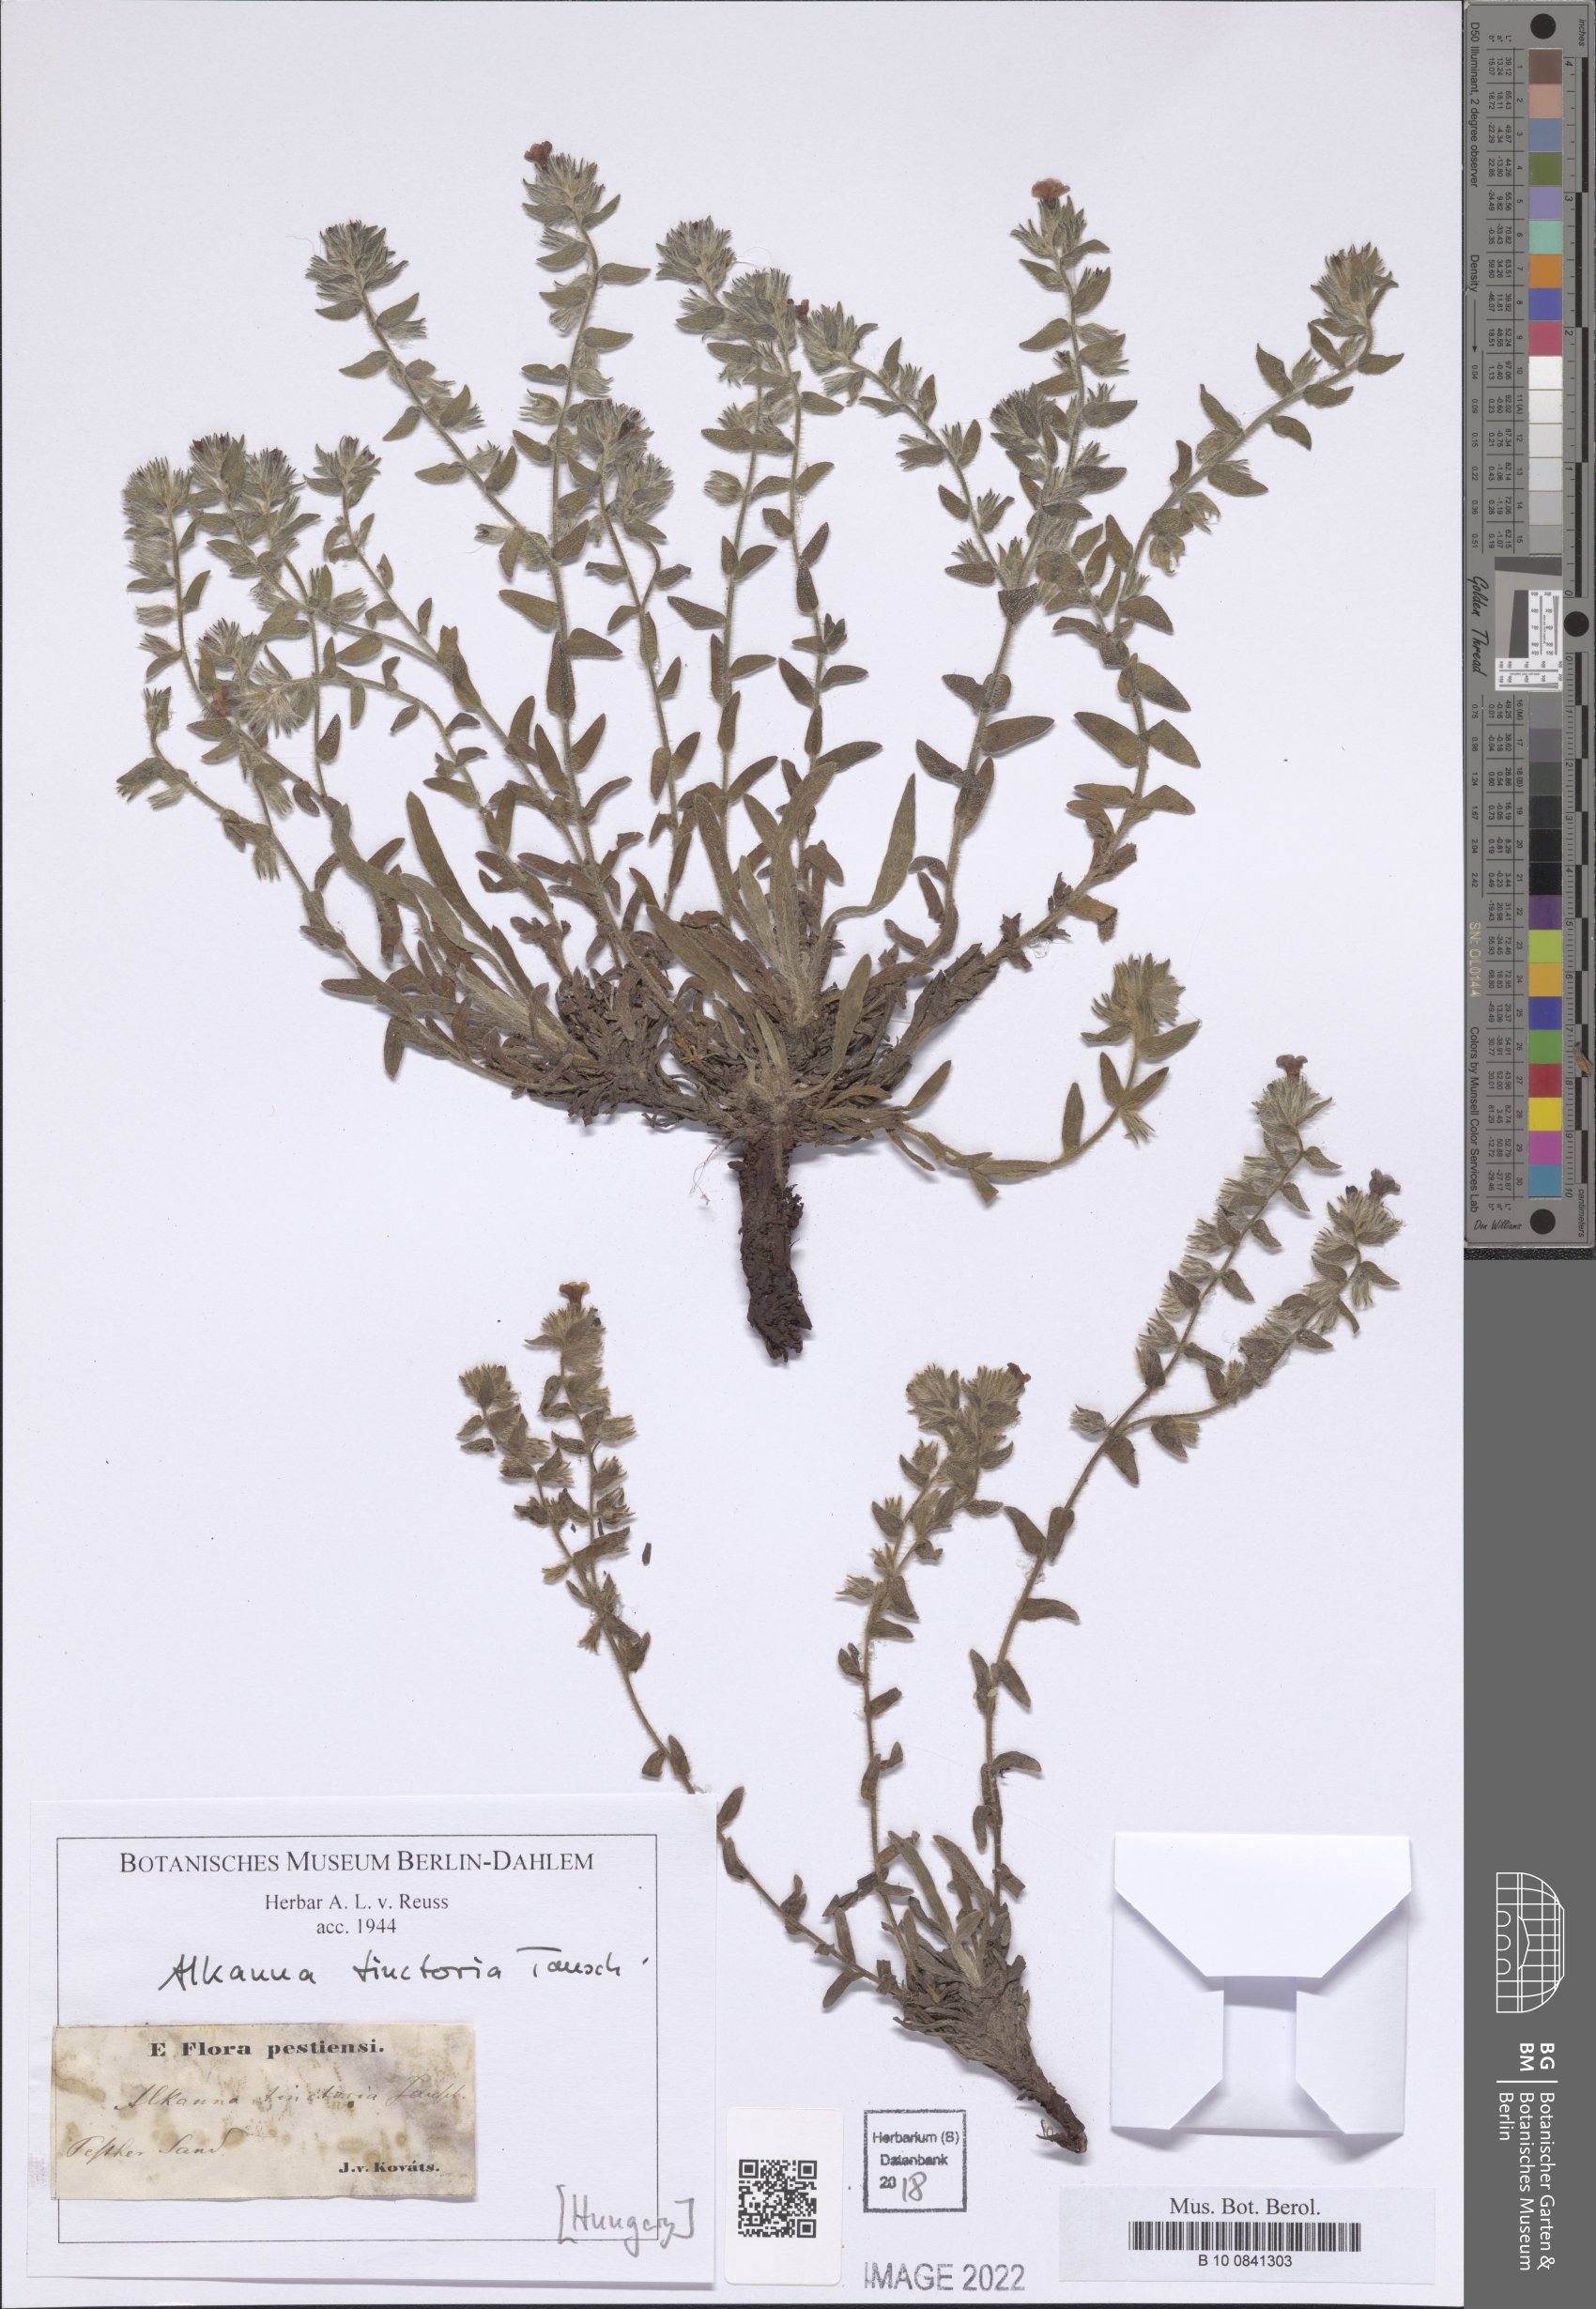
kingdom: Plantae
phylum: Tracheophyta
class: Magnoliopsida
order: Boraginales
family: Boraginaceae
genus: Alkanna
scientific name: Alkanna tinctoria
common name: Dyer's-alkanet
